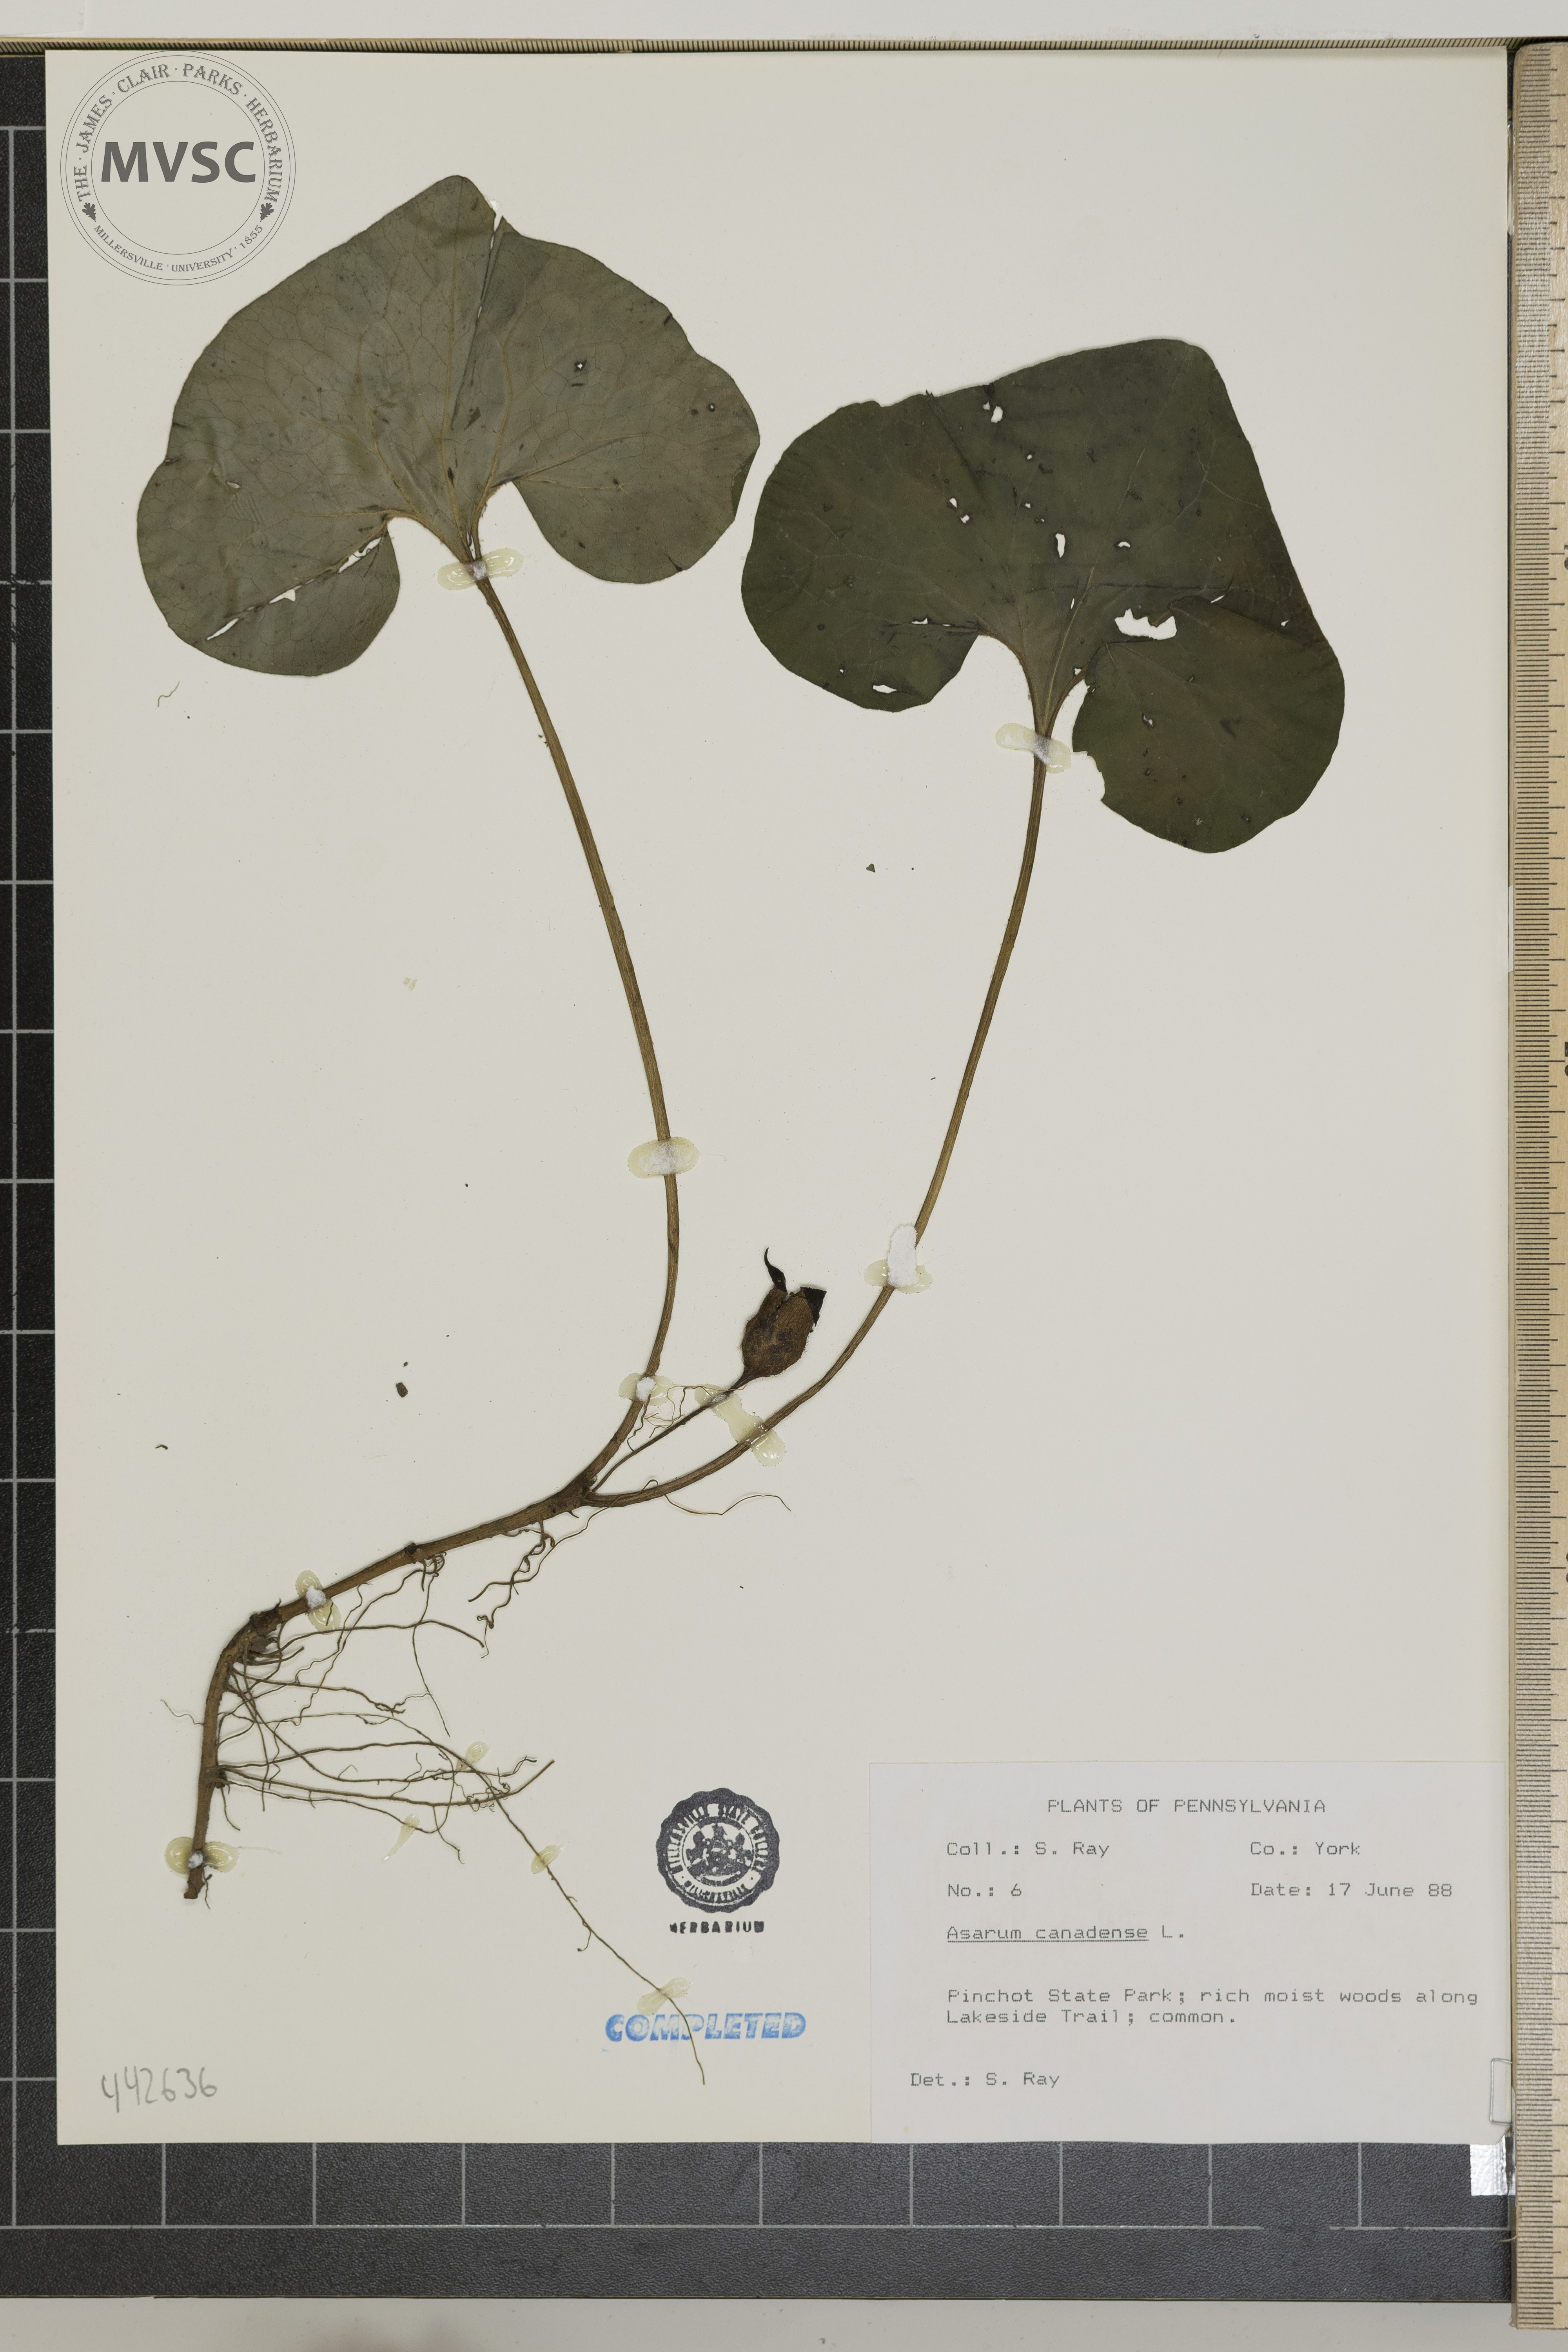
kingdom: Plantae
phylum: Tracheophyta
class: Magnoliopsida
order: Piperales
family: Aristolochiaceae
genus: Asarum
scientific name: Asarum canadense
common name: Wild ginger
